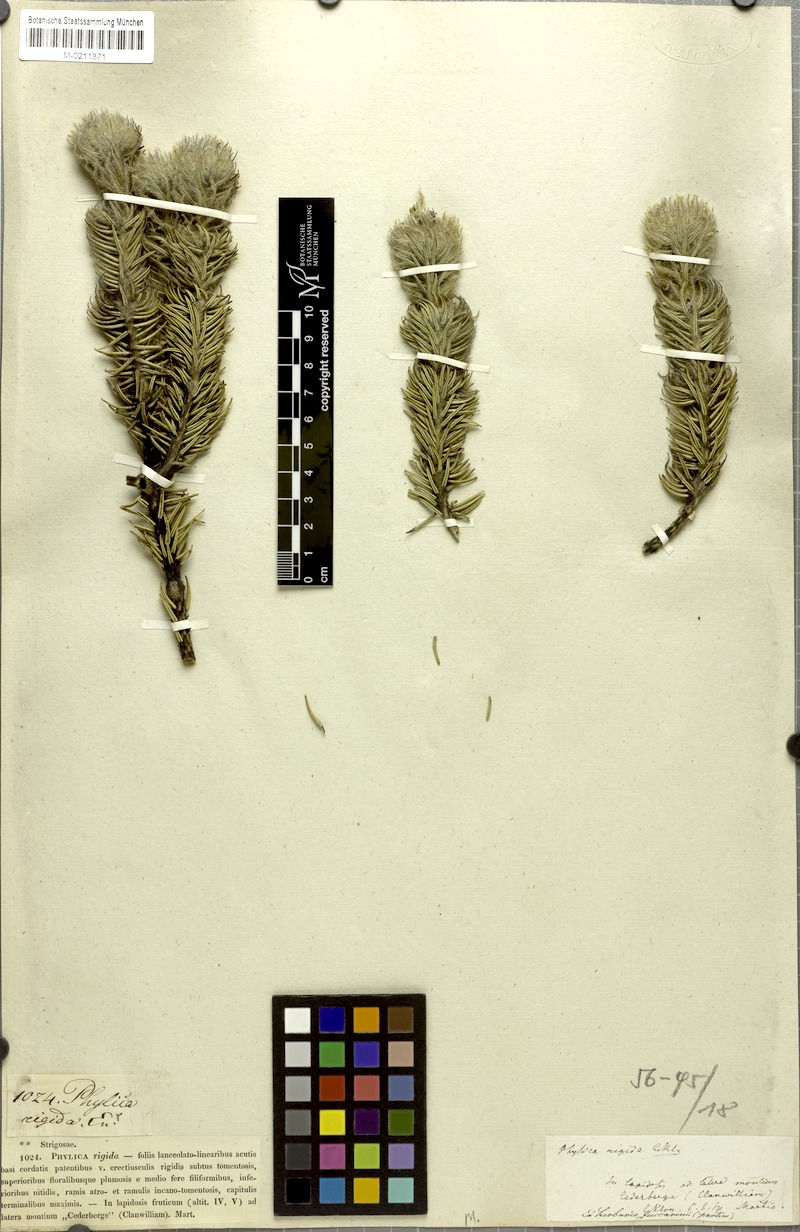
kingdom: Plantae
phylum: Tracheophyta
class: Magnoliopsida
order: Rosales
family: Rhamnaceae
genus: Phylica
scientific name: Phylica rigida
